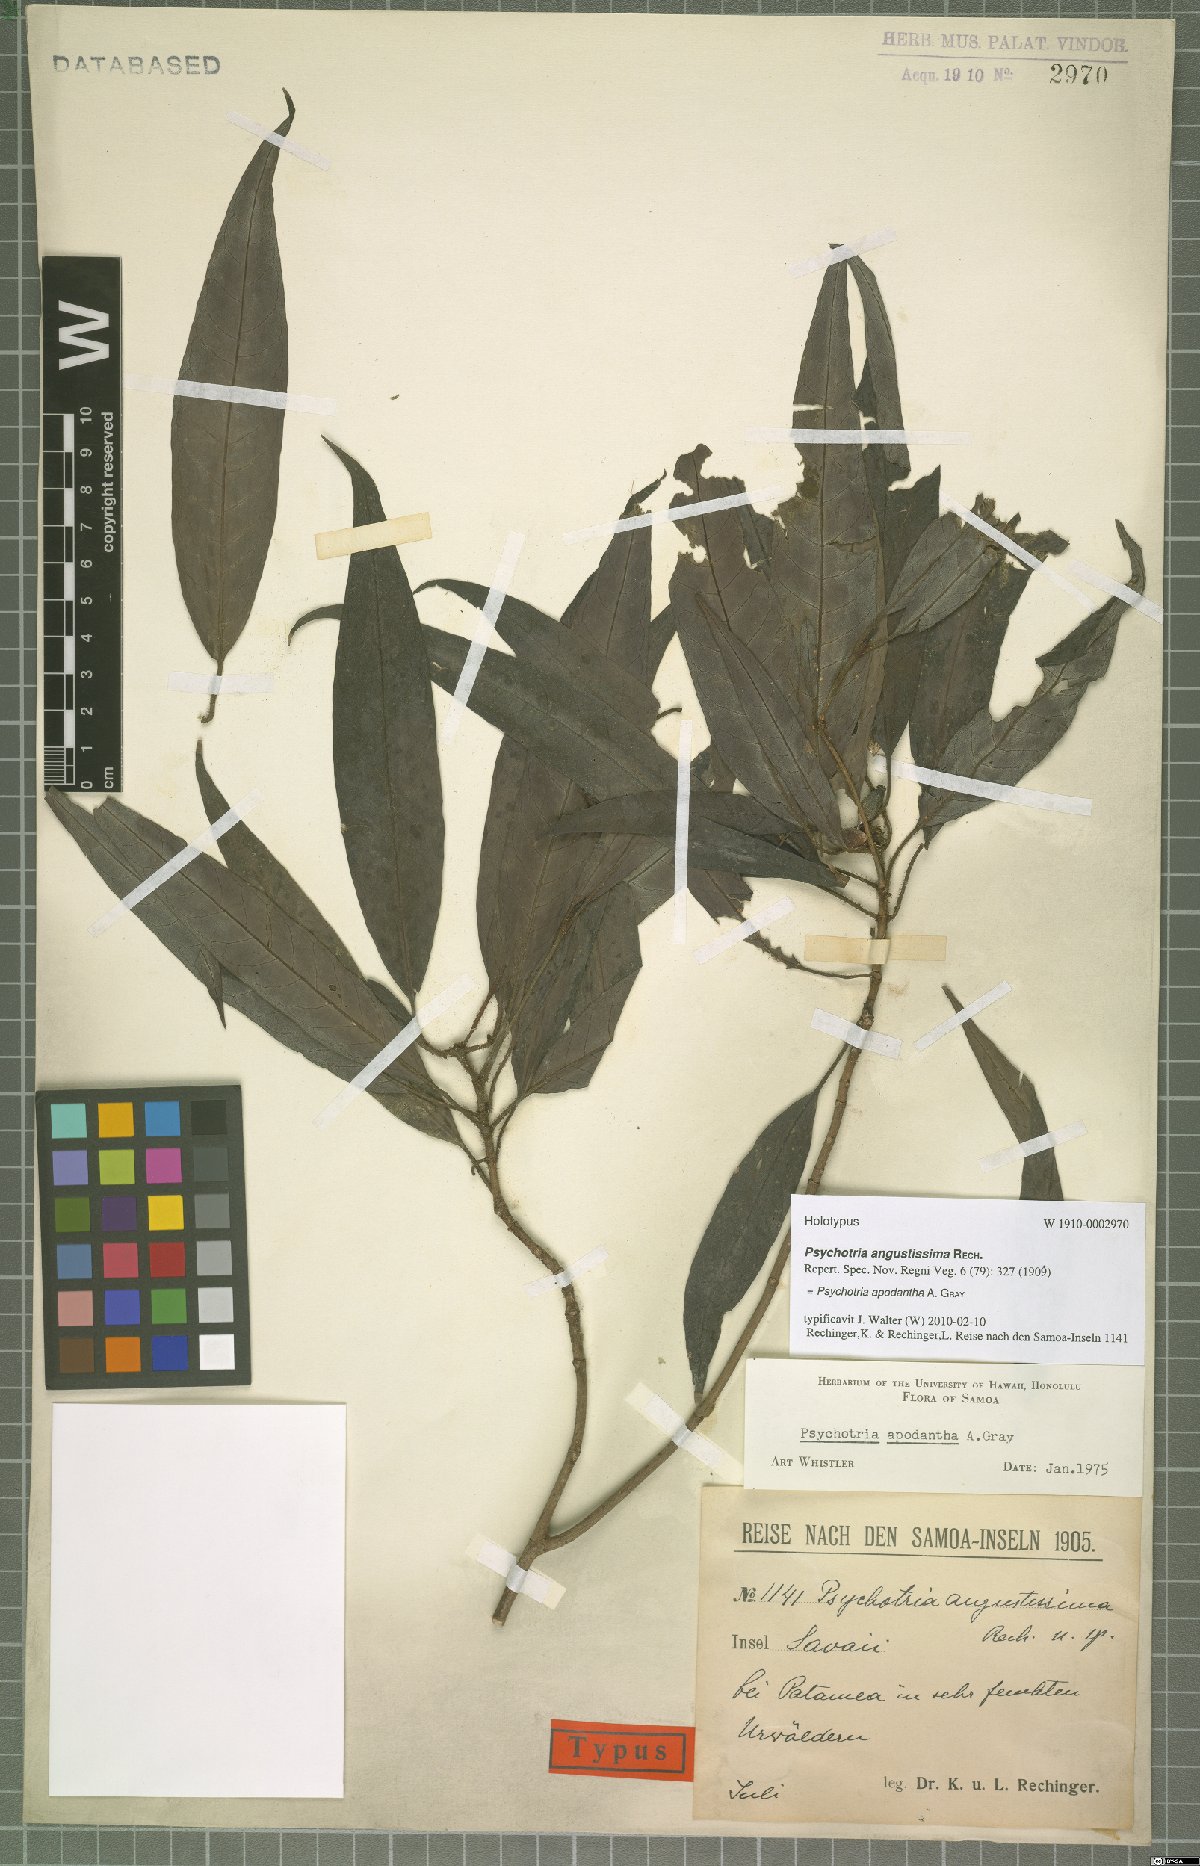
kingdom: Plantae
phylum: Tracheophyta
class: Magnoliopsida
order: Gentianales
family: Rubiaceae
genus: Psychotria
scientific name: Psychotria apodantha
